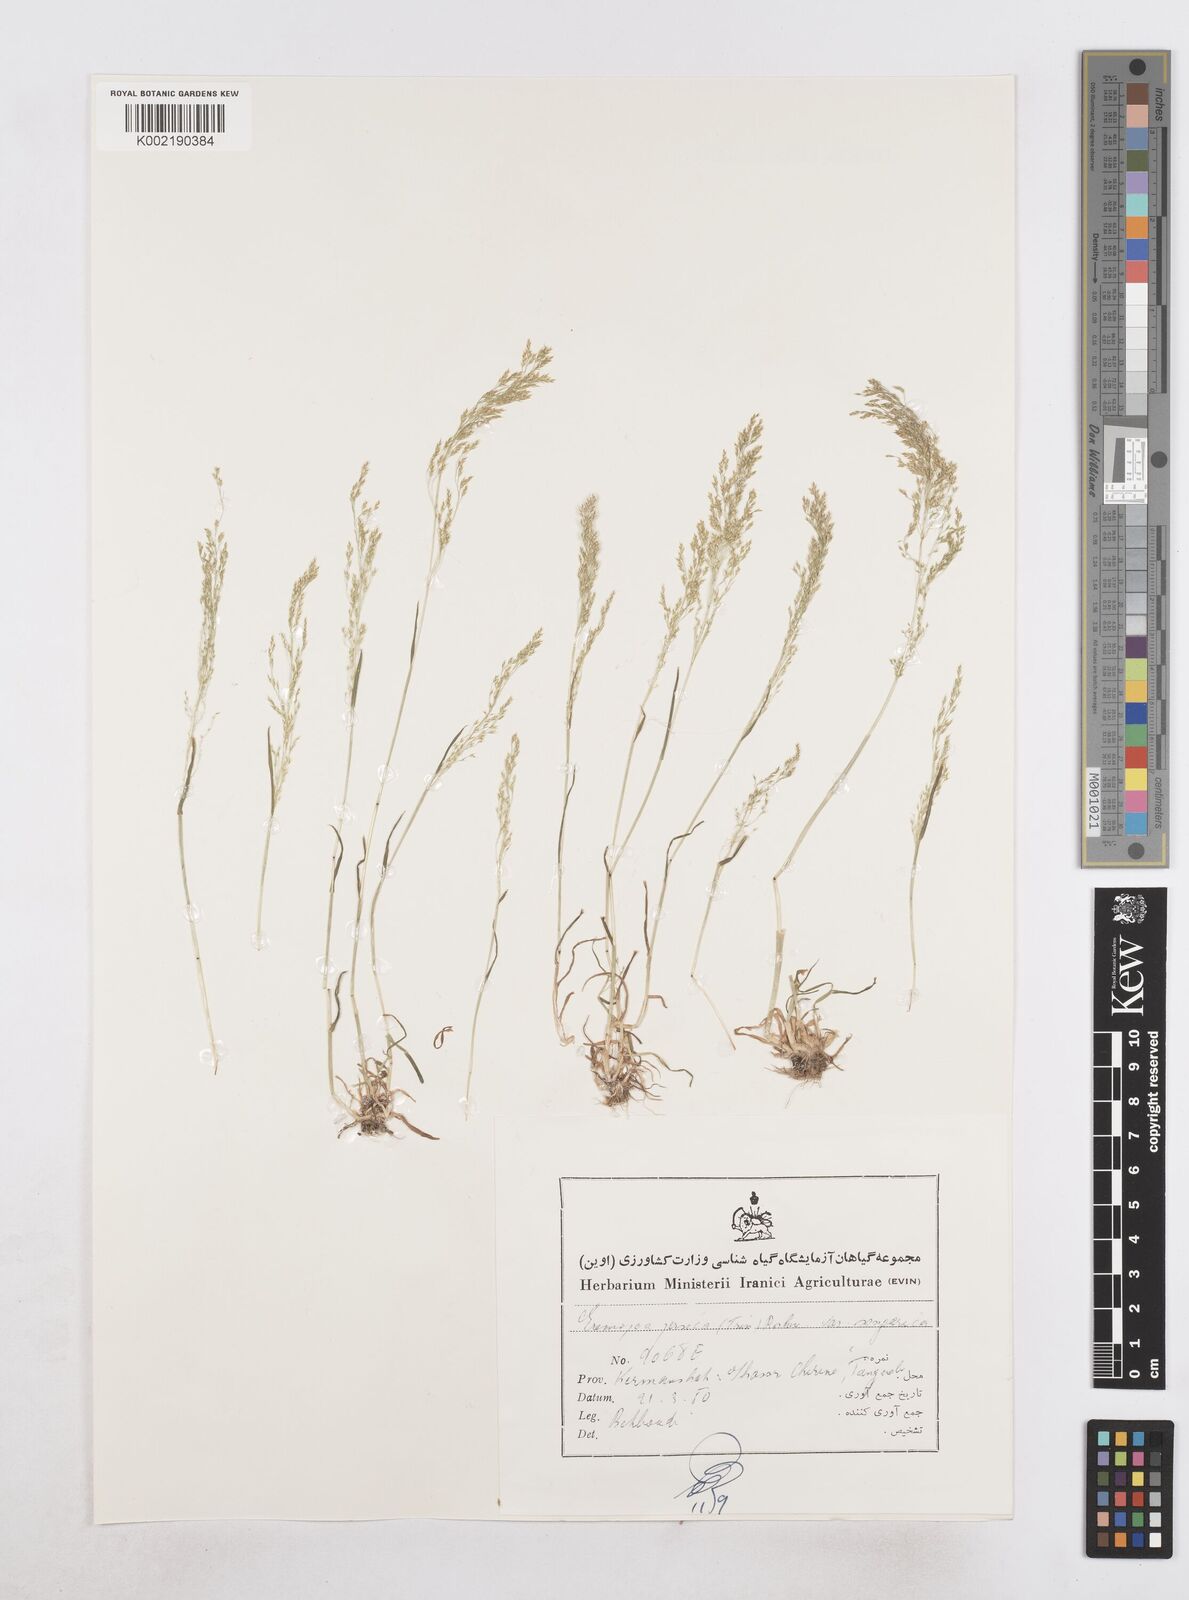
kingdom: Plantae
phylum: Tracheophyta
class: Liliopsida
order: Poales
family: Poaceae
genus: Poa
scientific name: Poa persica
